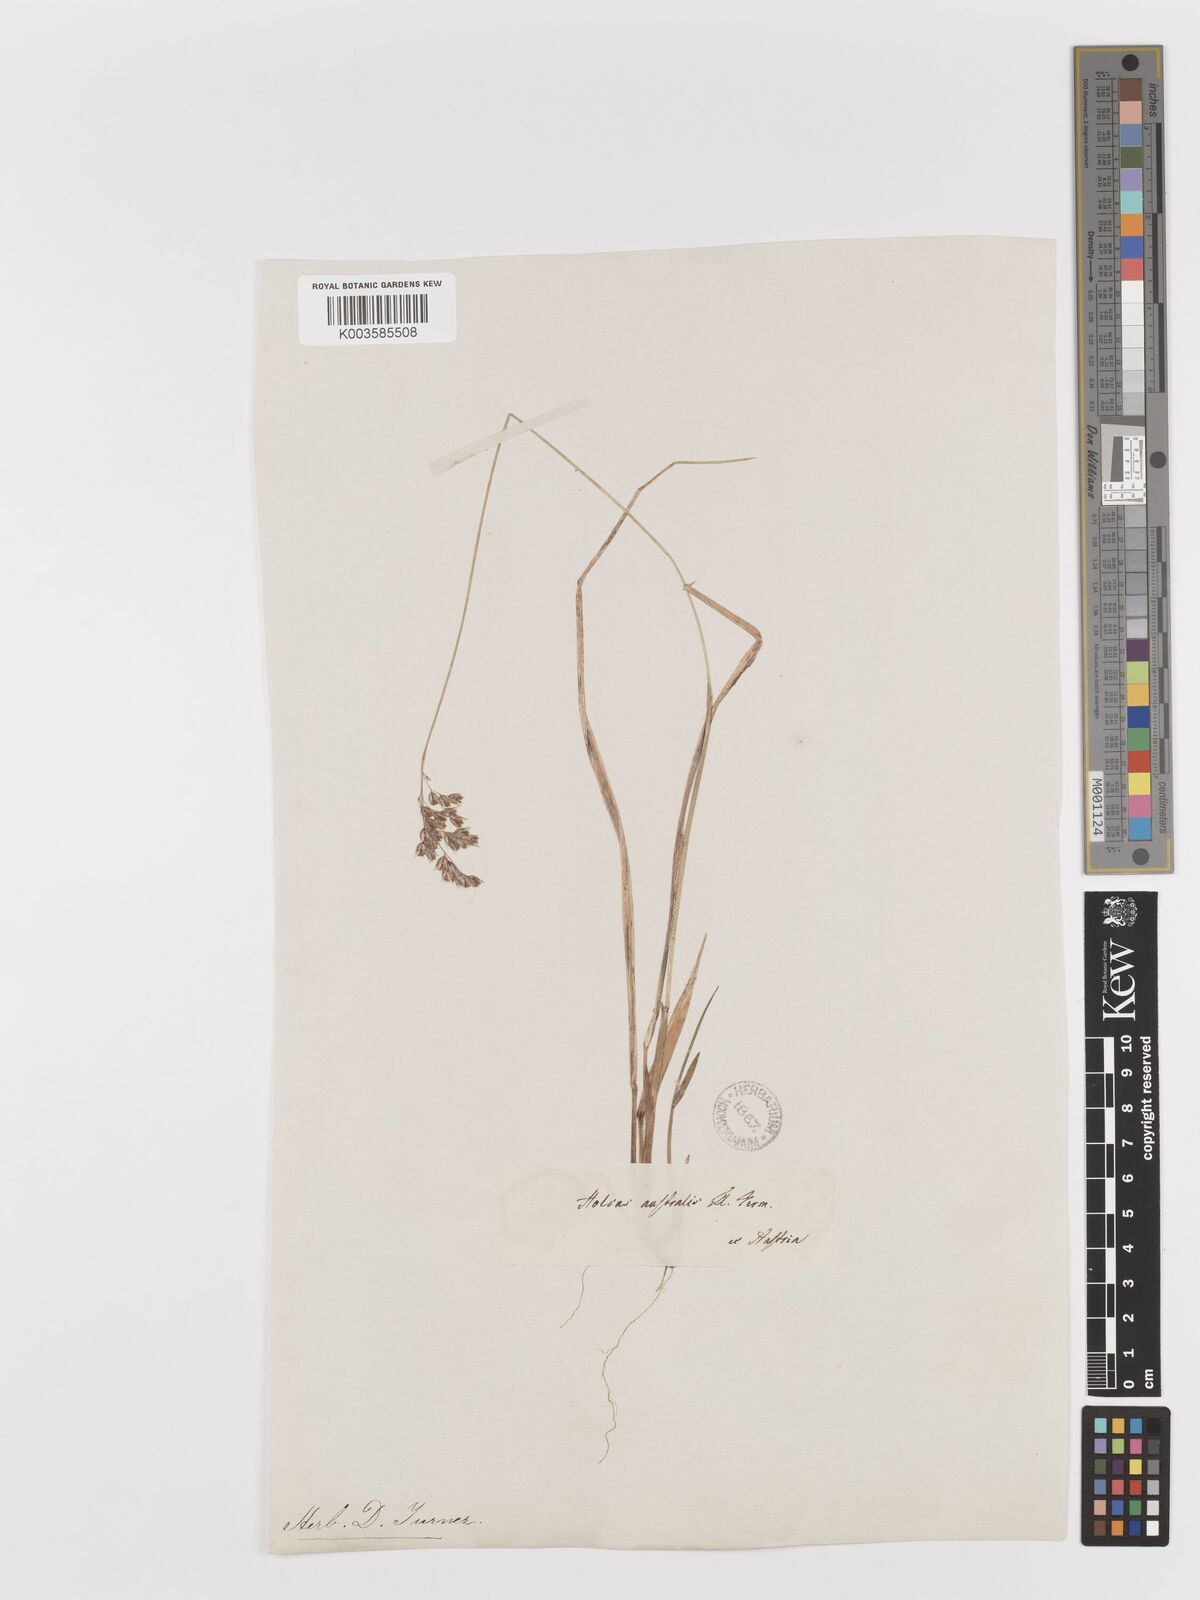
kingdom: Plantae
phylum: Tracheophyta
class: Liliopsida
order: Poales
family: Poaceae
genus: Anthoxanthum
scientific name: Anthoxanthum australe
